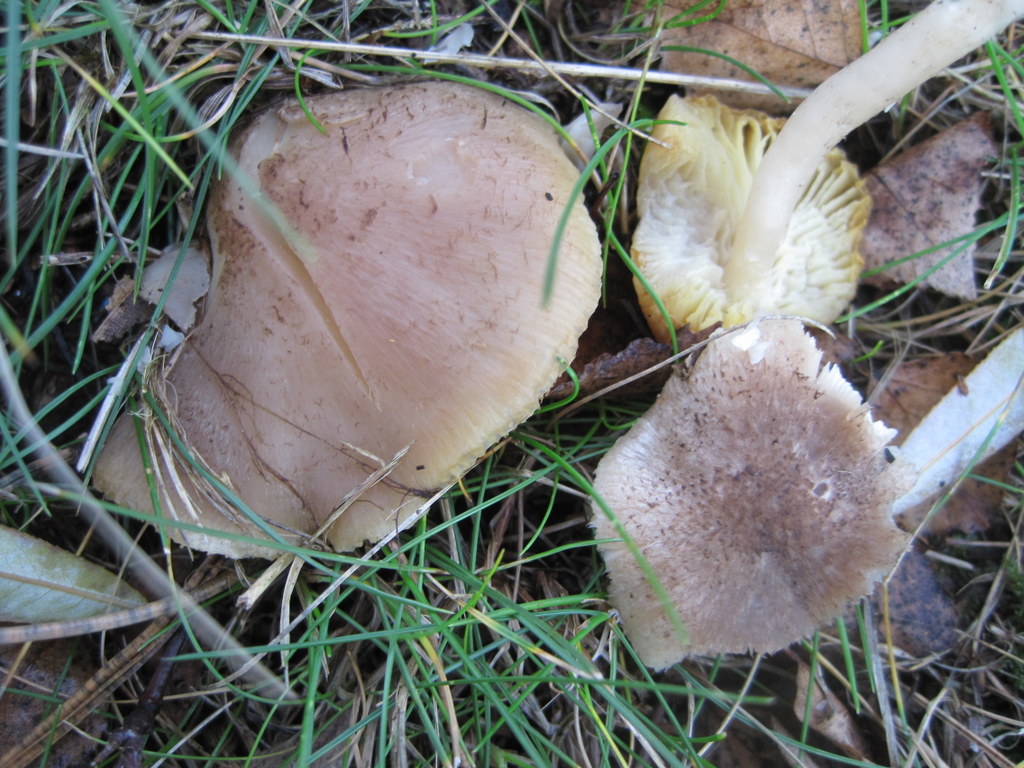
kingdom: Fungi
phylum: Basidiomycota
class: Agaricomycetes
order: Agaricales
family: Tricholomataceae
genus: Tricholoma
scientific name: Tricholoma scalpturatum
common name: gulplettet ridderhat
